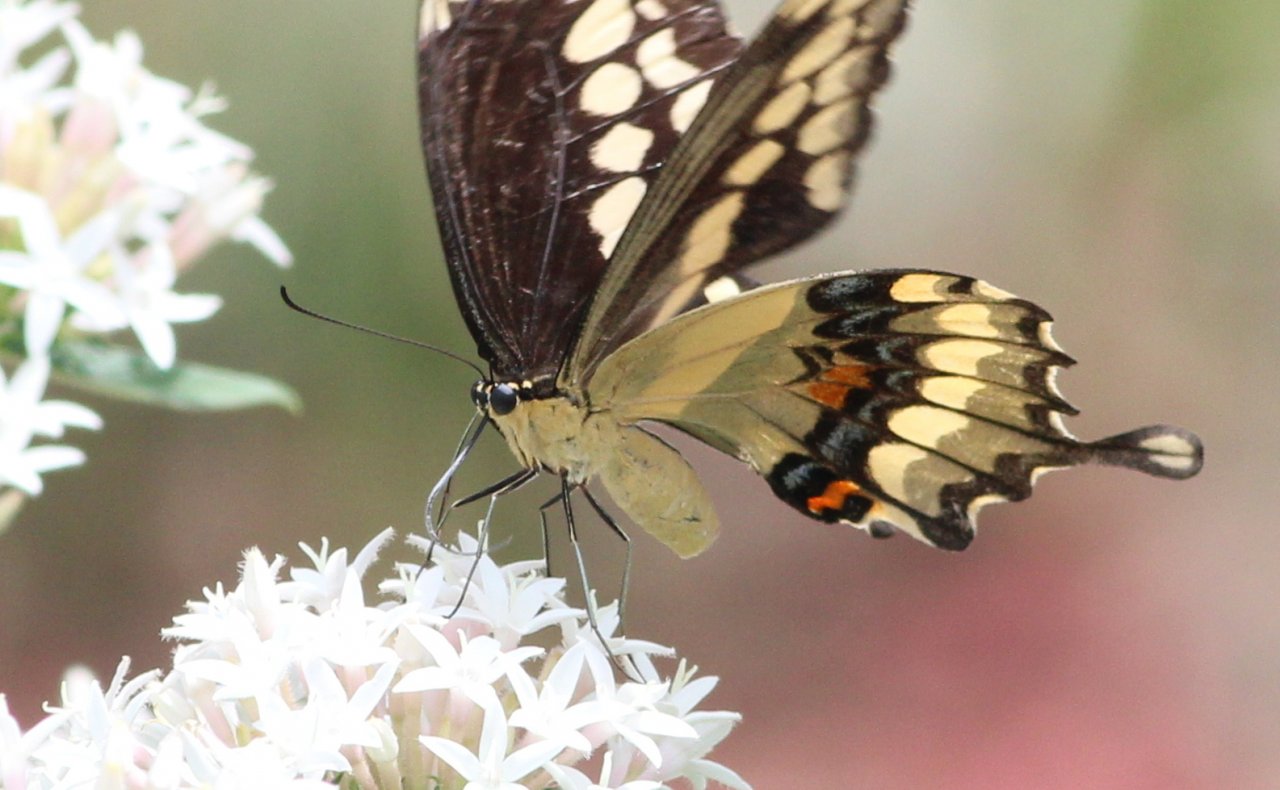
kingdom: Animalia
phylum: Arthropoda
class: Insecta
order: Lepidoptera
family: Papilionidae
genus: Papilio
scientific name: Papilio cresphontes
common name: Eastern Giant Swallowtail
